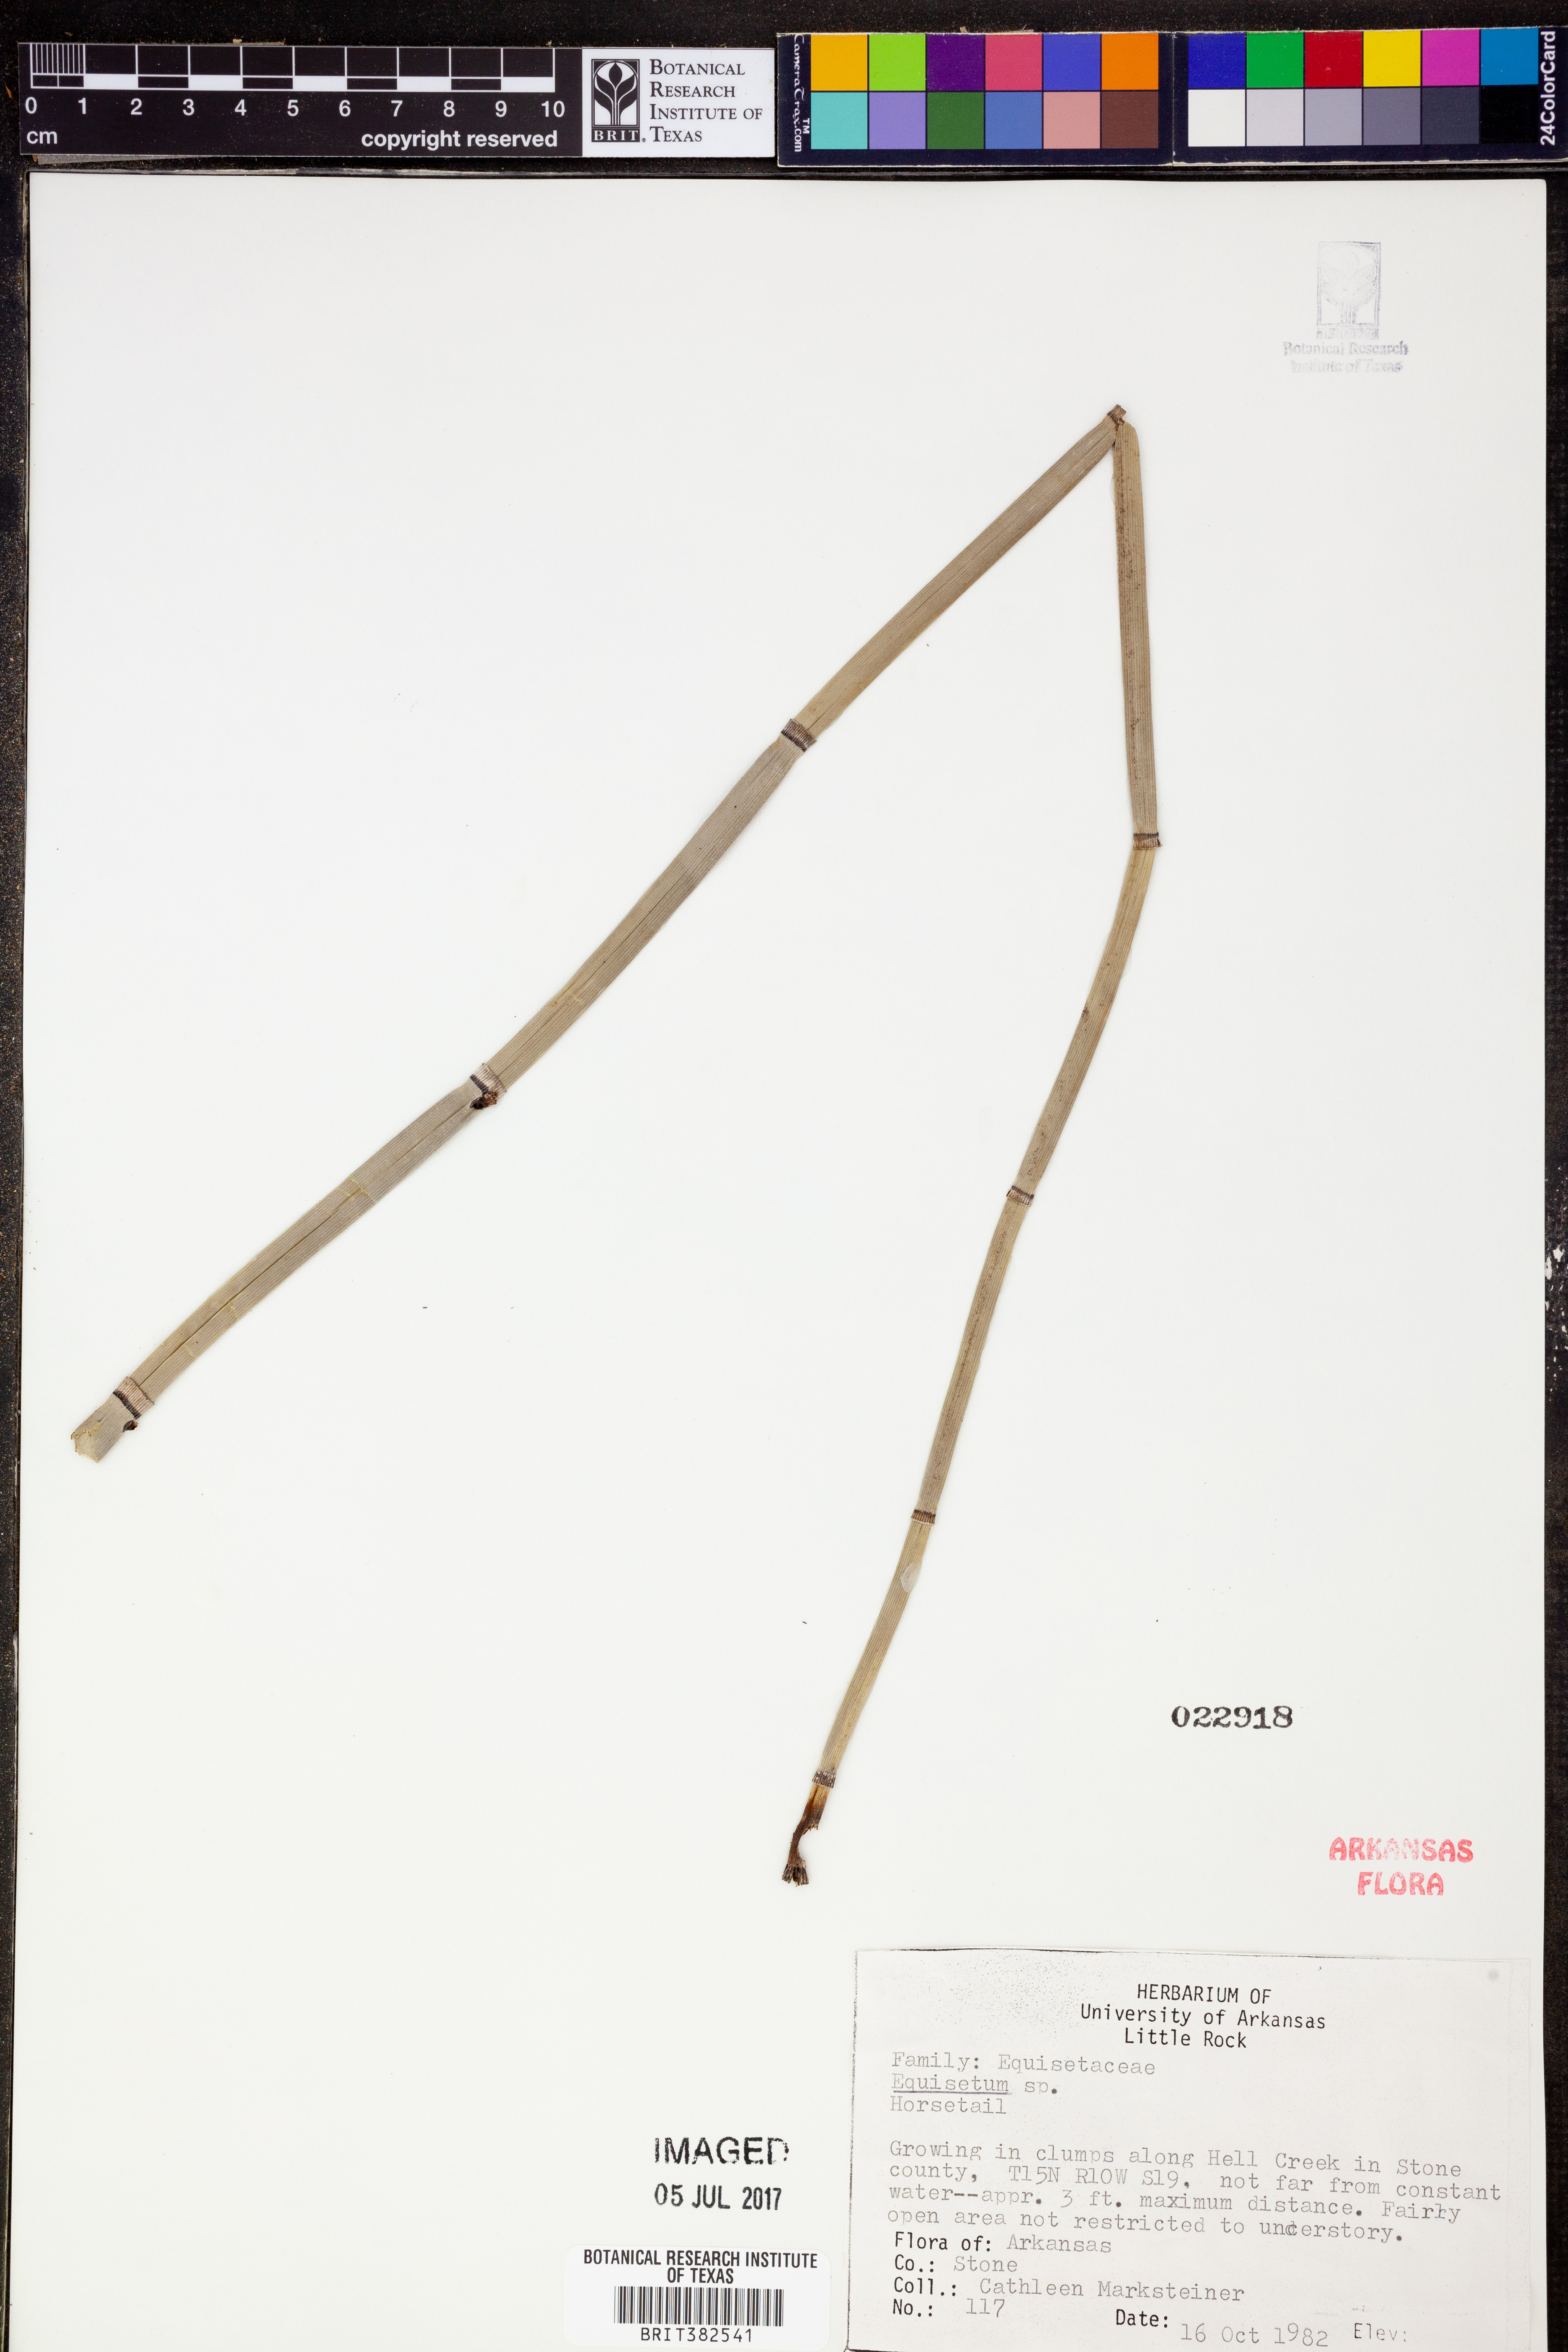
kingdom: Plantae
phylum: Tracheophyta
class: Polypodiopsida
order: Equisetales
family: Equisetaceae
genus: Equisetum
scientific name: Equisetum
